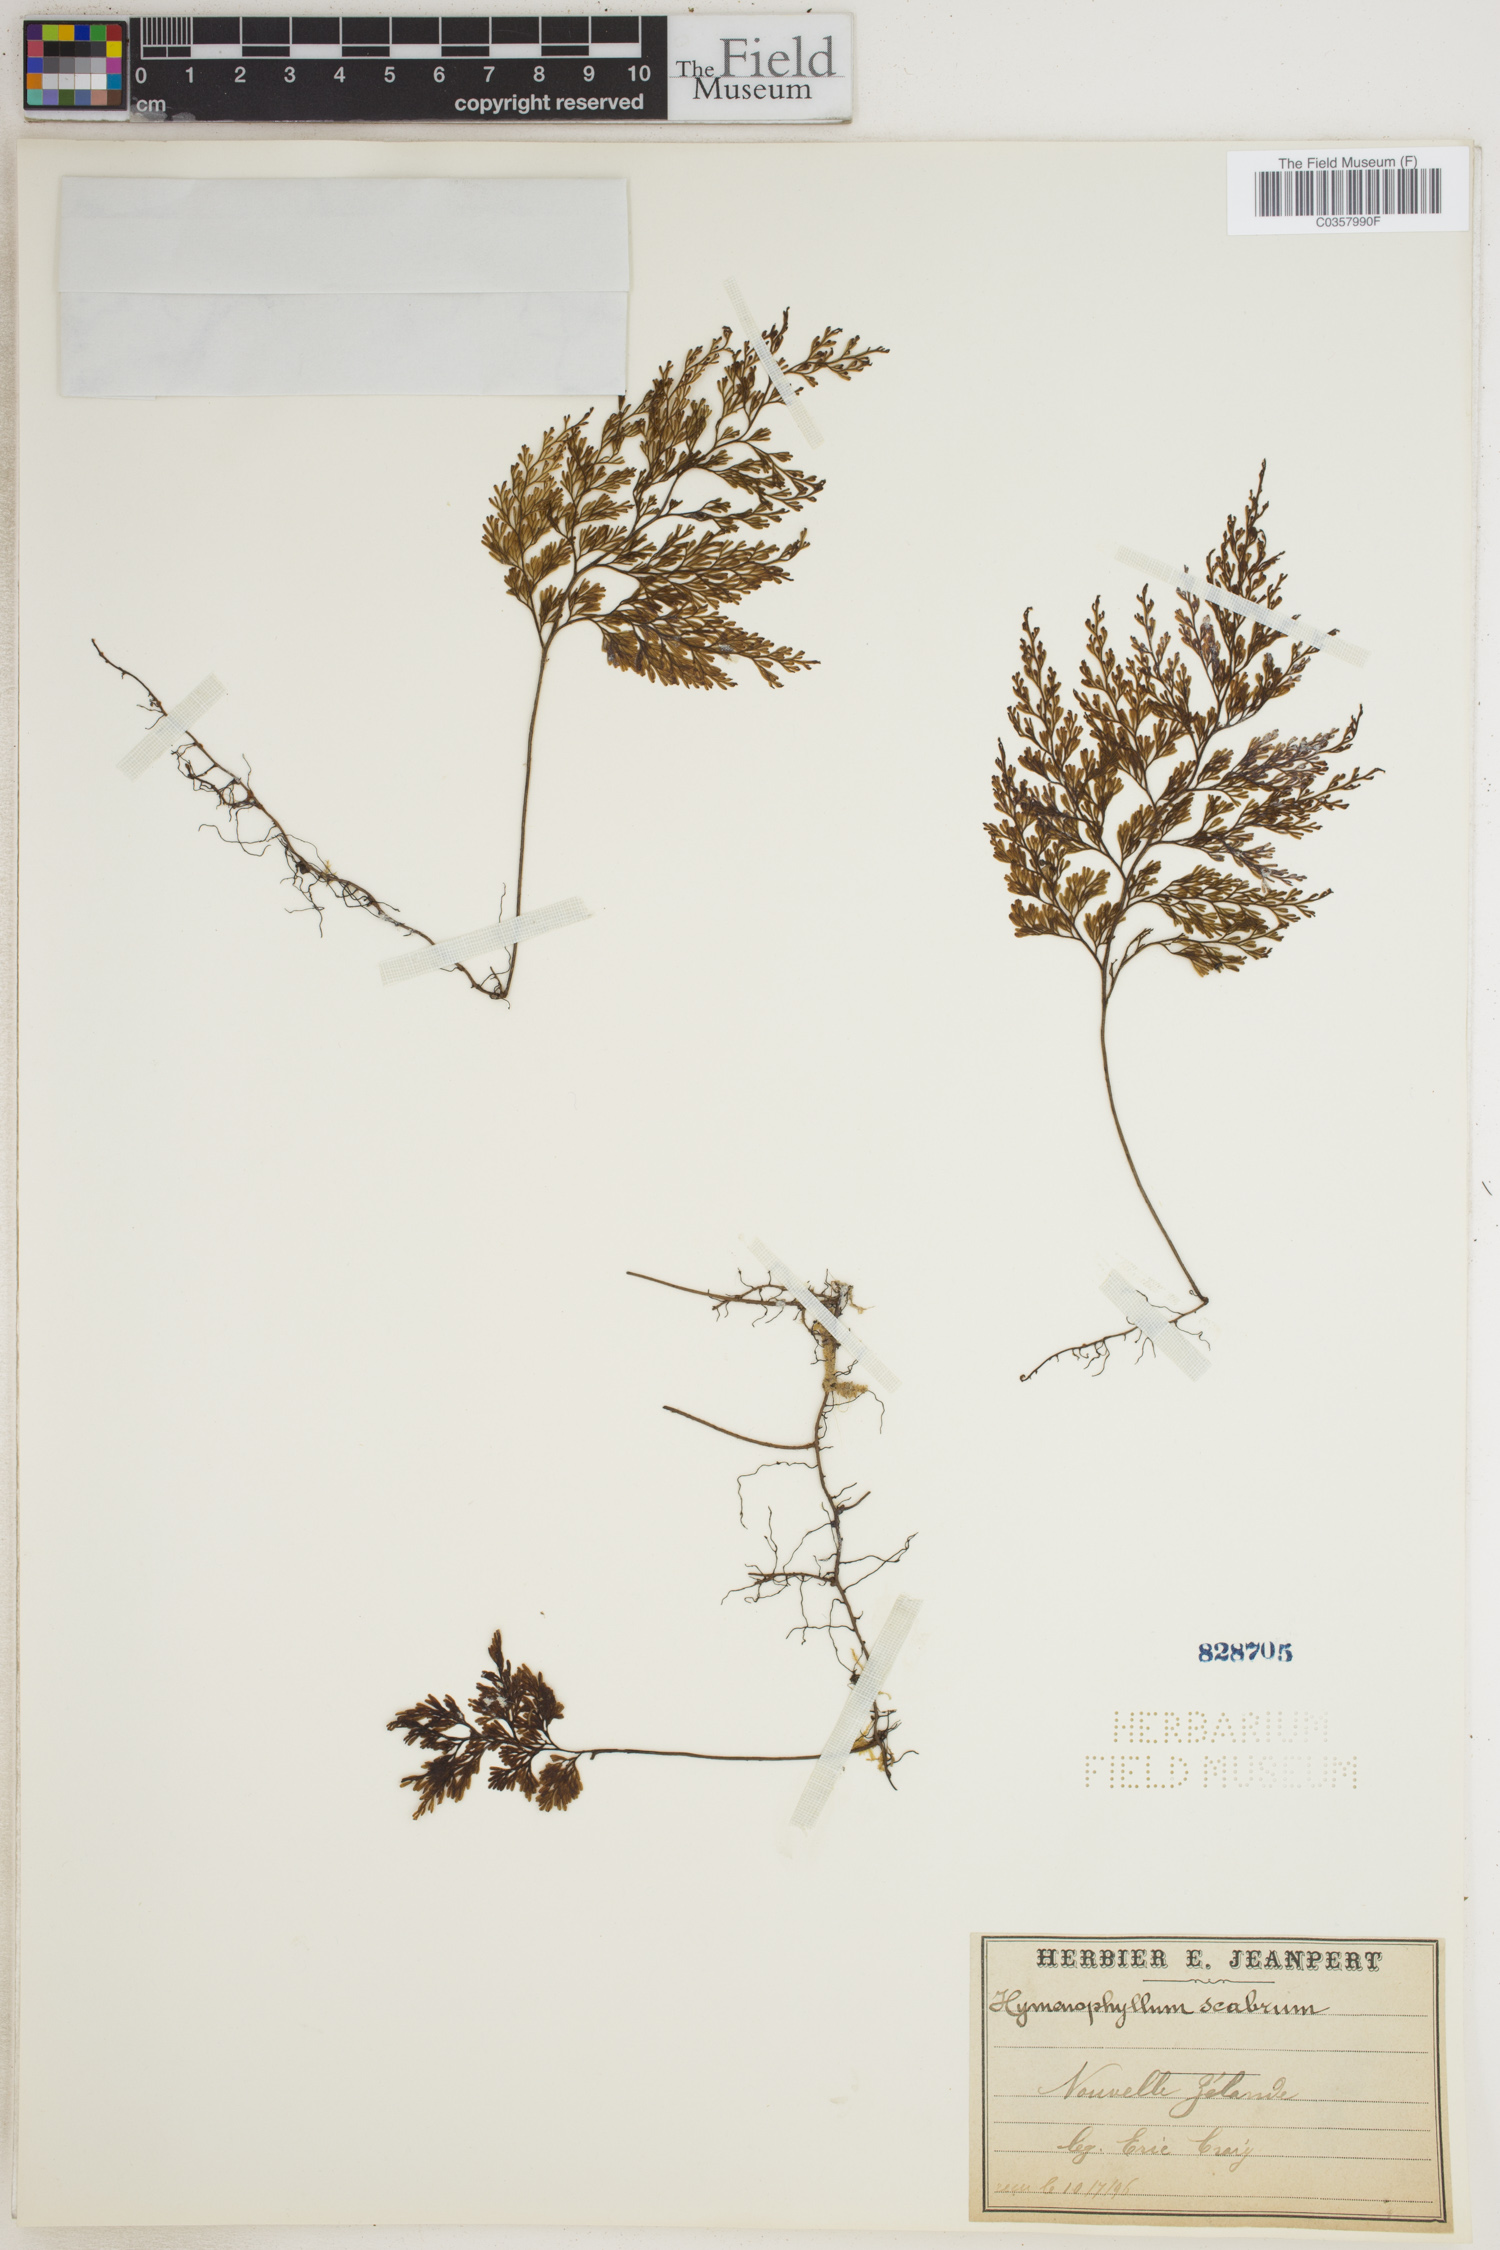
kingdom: Plantae
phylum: Tracheophyta
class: Polypodiopsida
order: Hymenophyllales
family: Hymenophyllaceae
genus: Hymenophyllum
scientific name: Hymenophyllum scabrum
